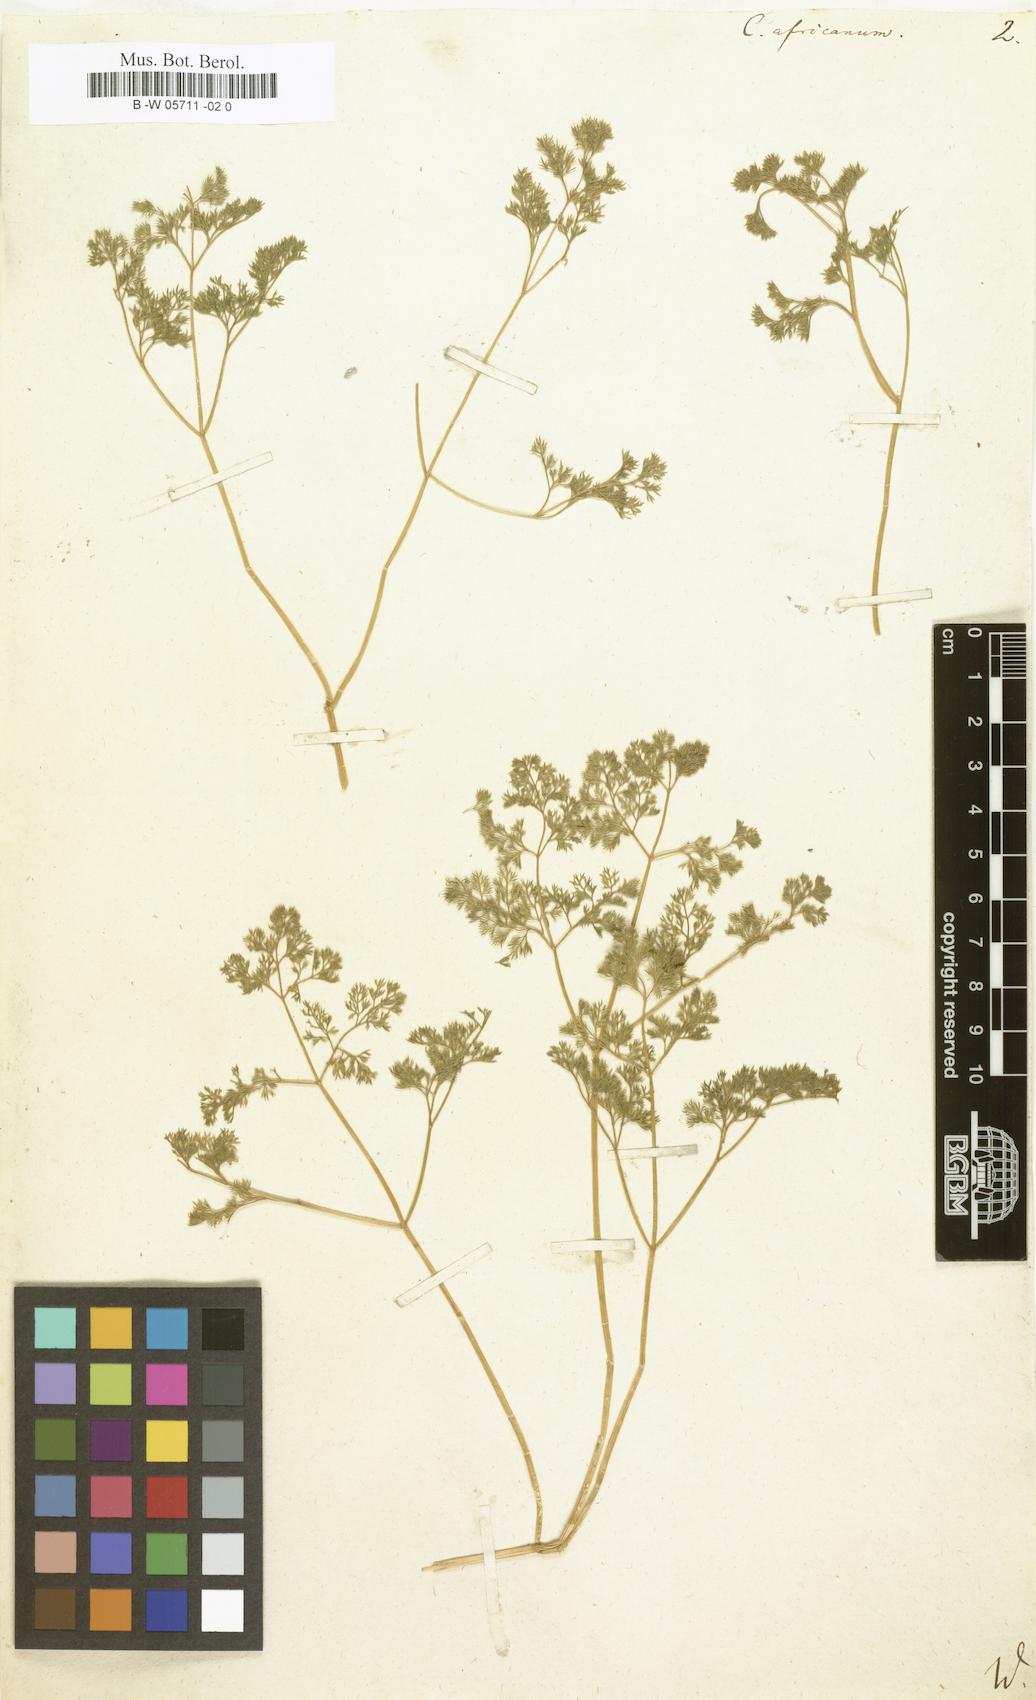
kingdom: Plantae
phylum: Tracheophyta
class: Magnoliopsida
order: Apiales
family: Apiaceae
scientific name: Apiaceae
